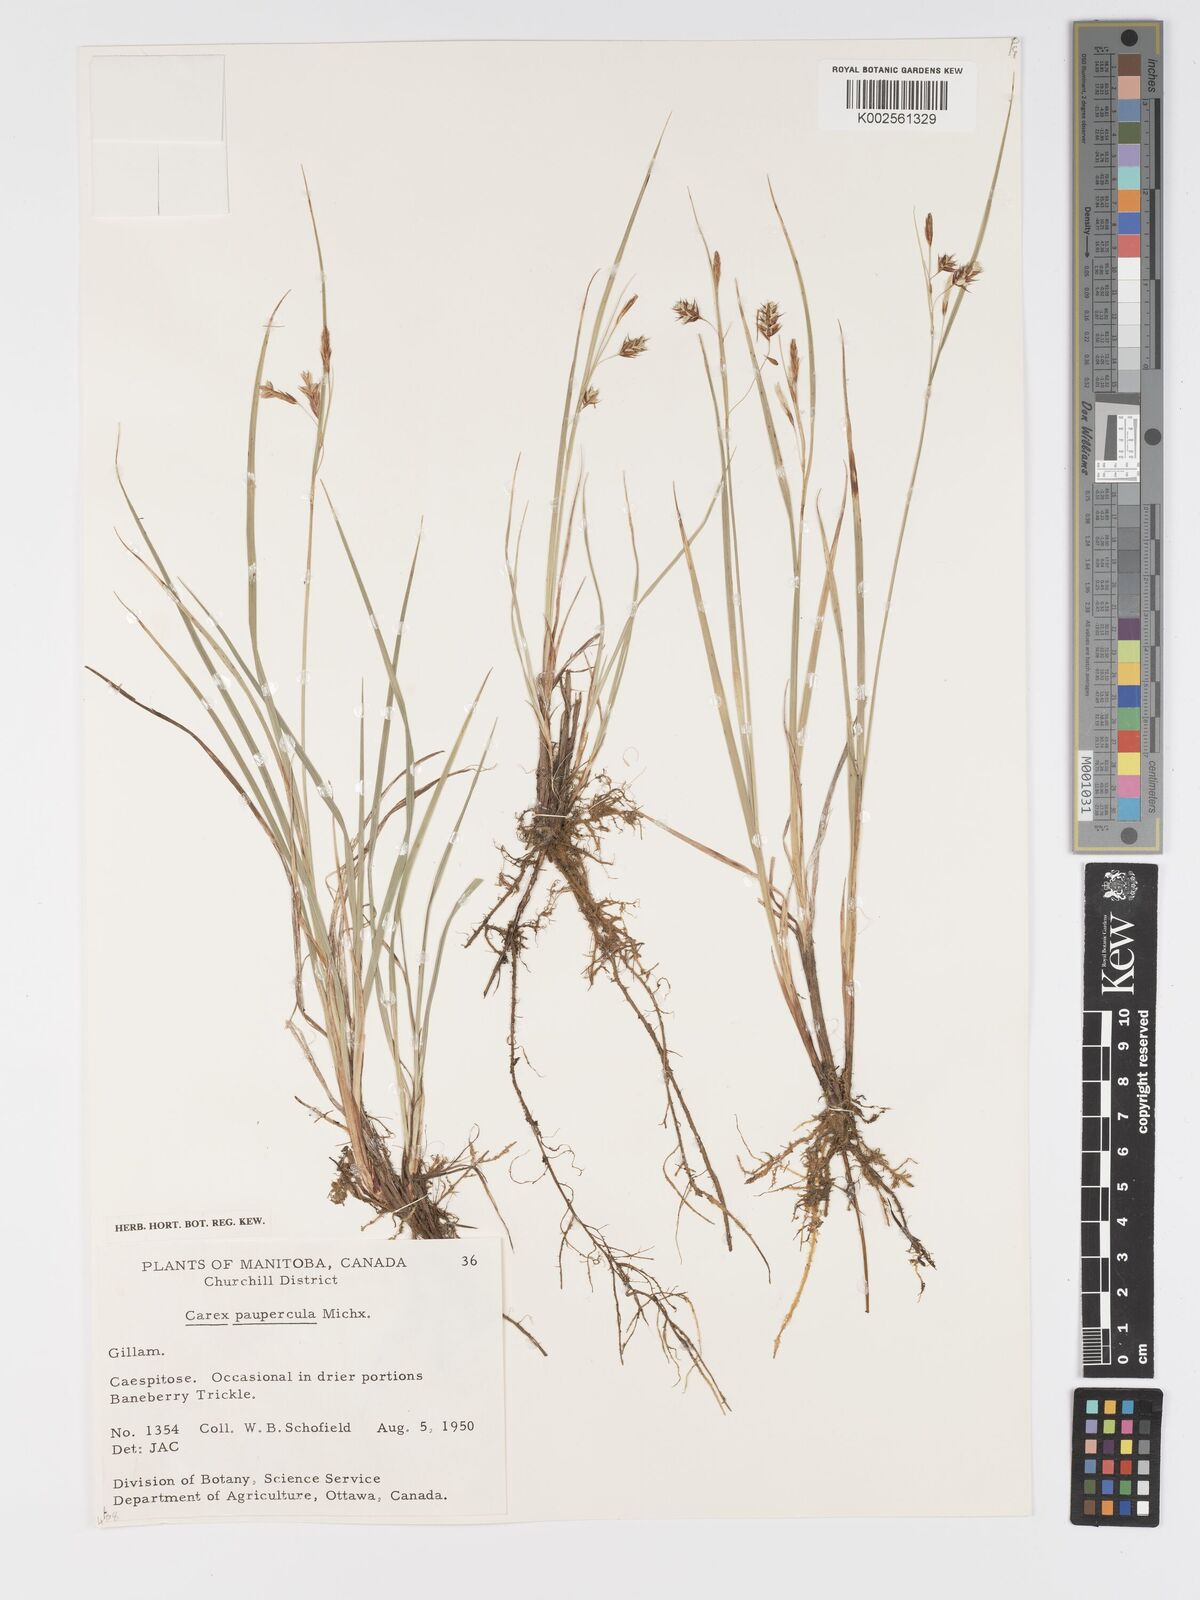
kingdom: Plantae
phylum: Tracheophyta
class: Liliopsida
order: Poales
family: Cyperaceae
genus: Carex
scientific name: Carex magellanica
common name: Bog sedge
